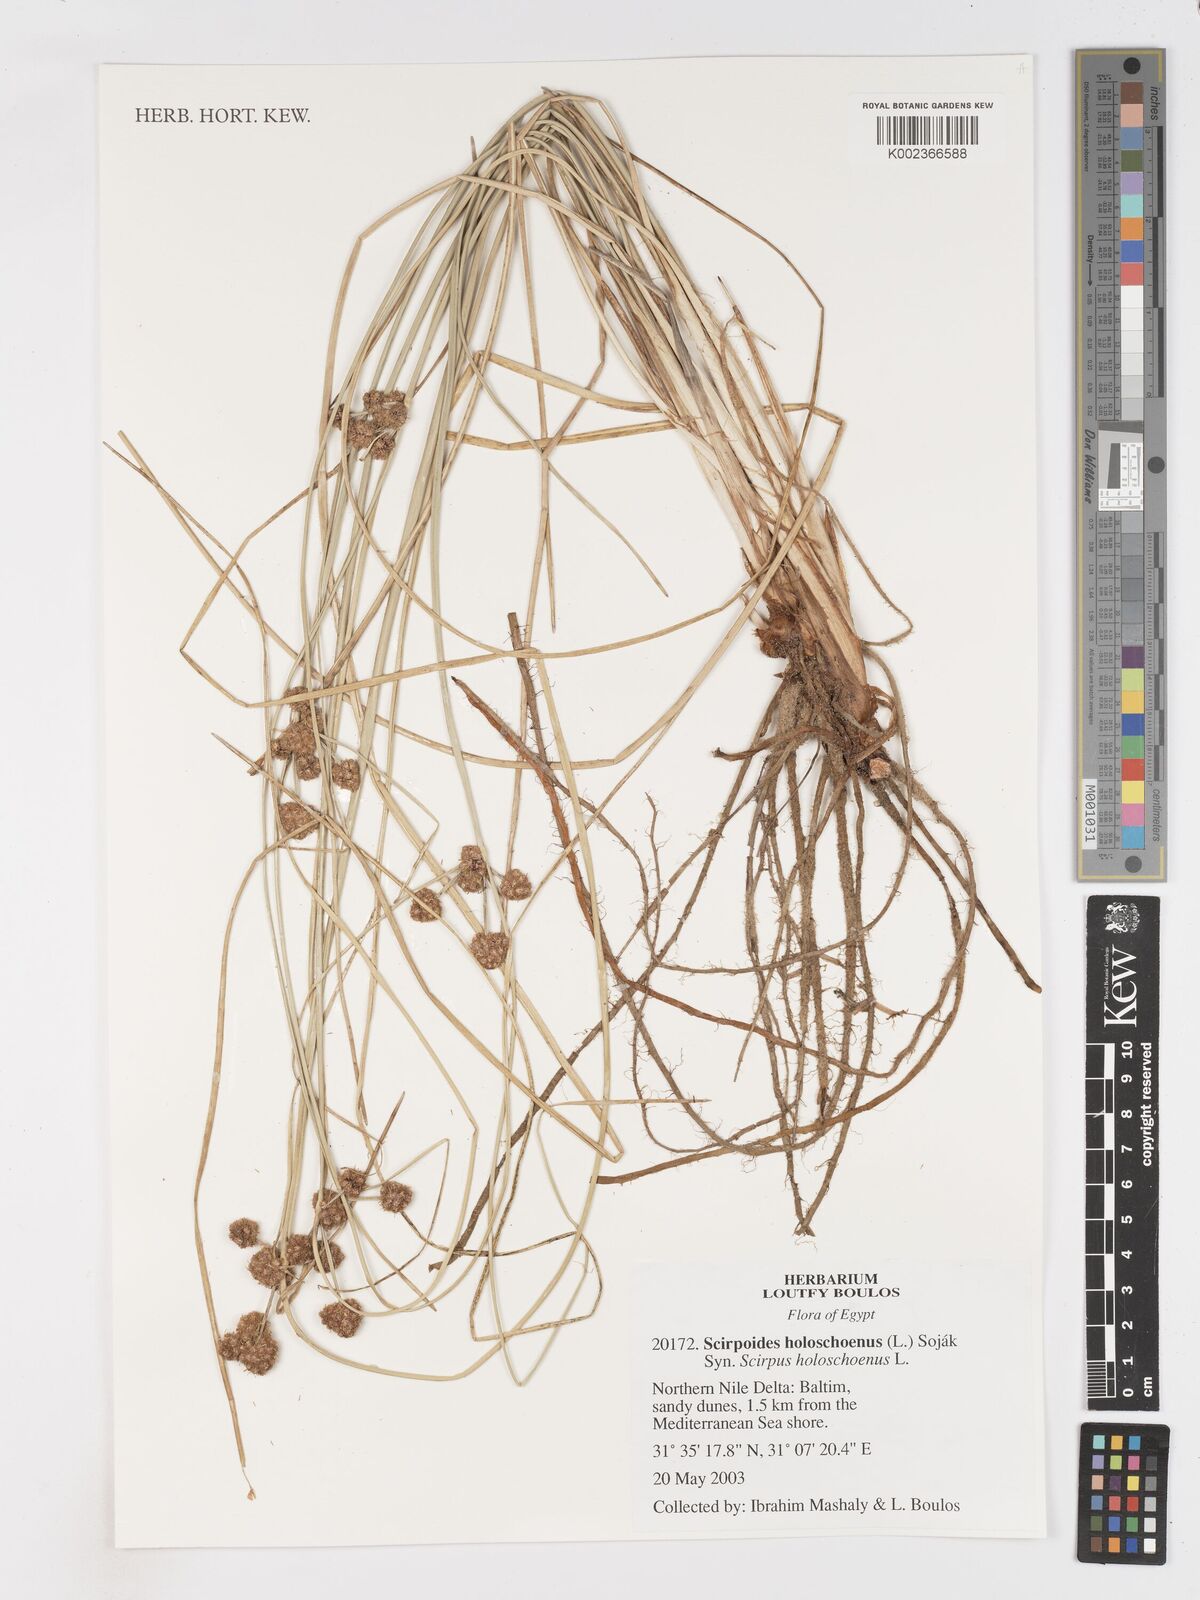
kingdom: Plantae
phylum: Tracheophyta
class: Liliopsida
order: Poales
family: Cyperaceae
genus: Scirpoides
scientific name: Scirpoides holoschoenus
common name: Round-headed club-rush
